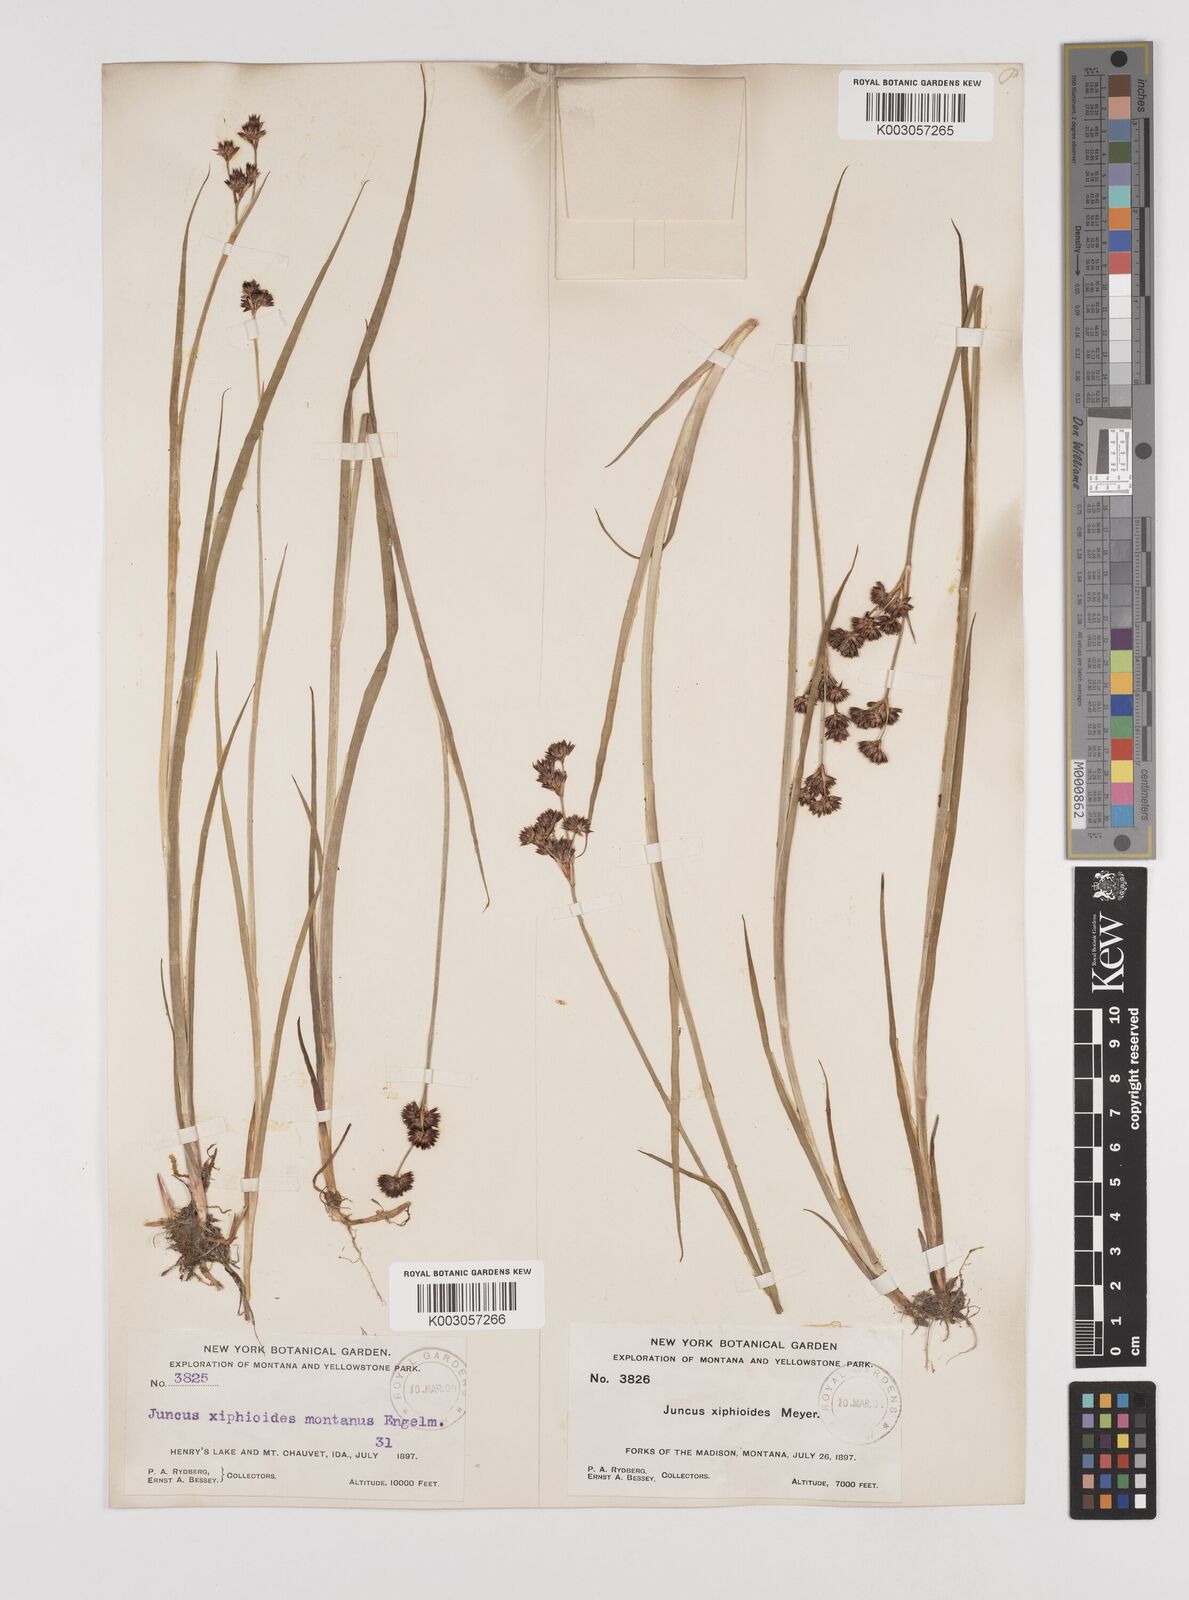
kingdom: Plantae
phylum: Tracheophyta
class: Liliopsida
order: Poales
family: Juncaceae
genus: Juncus
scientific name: Juncus xiphioides
